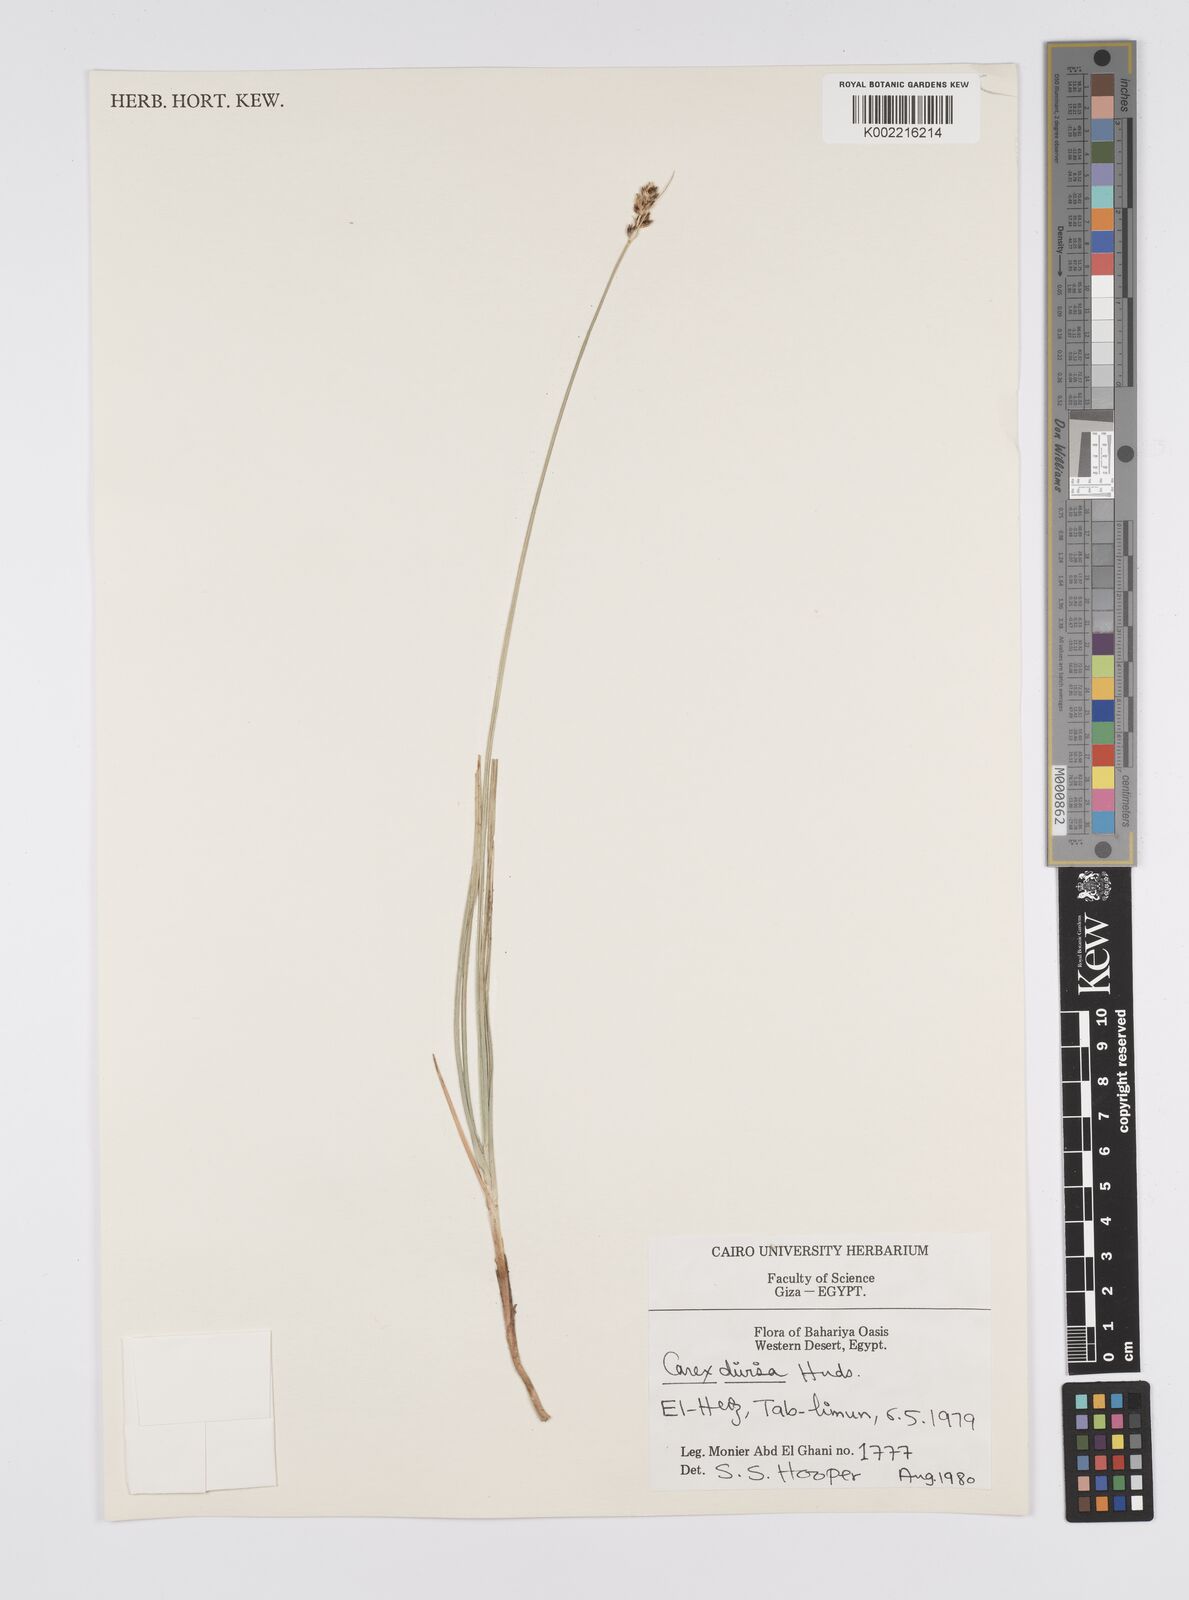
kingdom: Plantae
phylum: Tracheophyta
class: Liliopsida
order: Poales
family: Cyperaceae
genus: Carex
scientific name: Carex divisa
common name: Divided sedge
